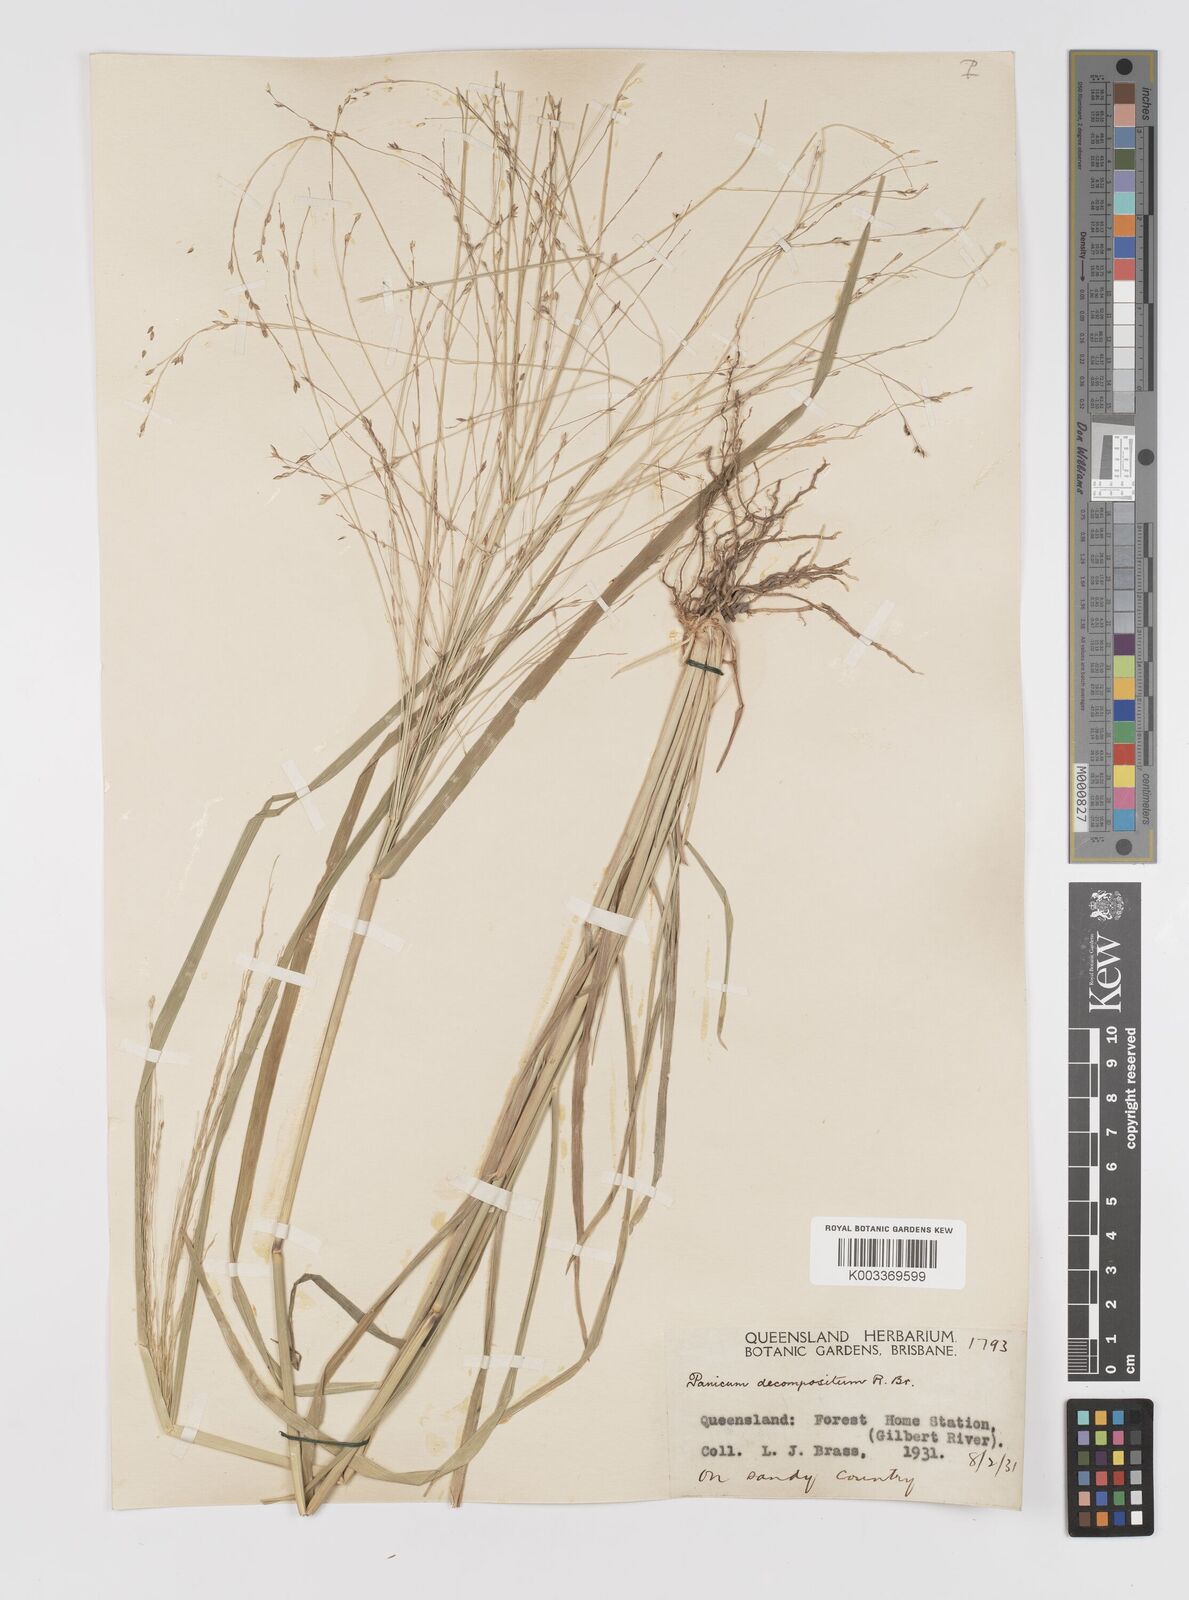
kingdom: Plantae
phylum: Tracheophyta
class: Liliopsida
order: Poales
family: Poaceae
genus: Panicum
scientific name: Panicum decompositum
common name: Australian millet
